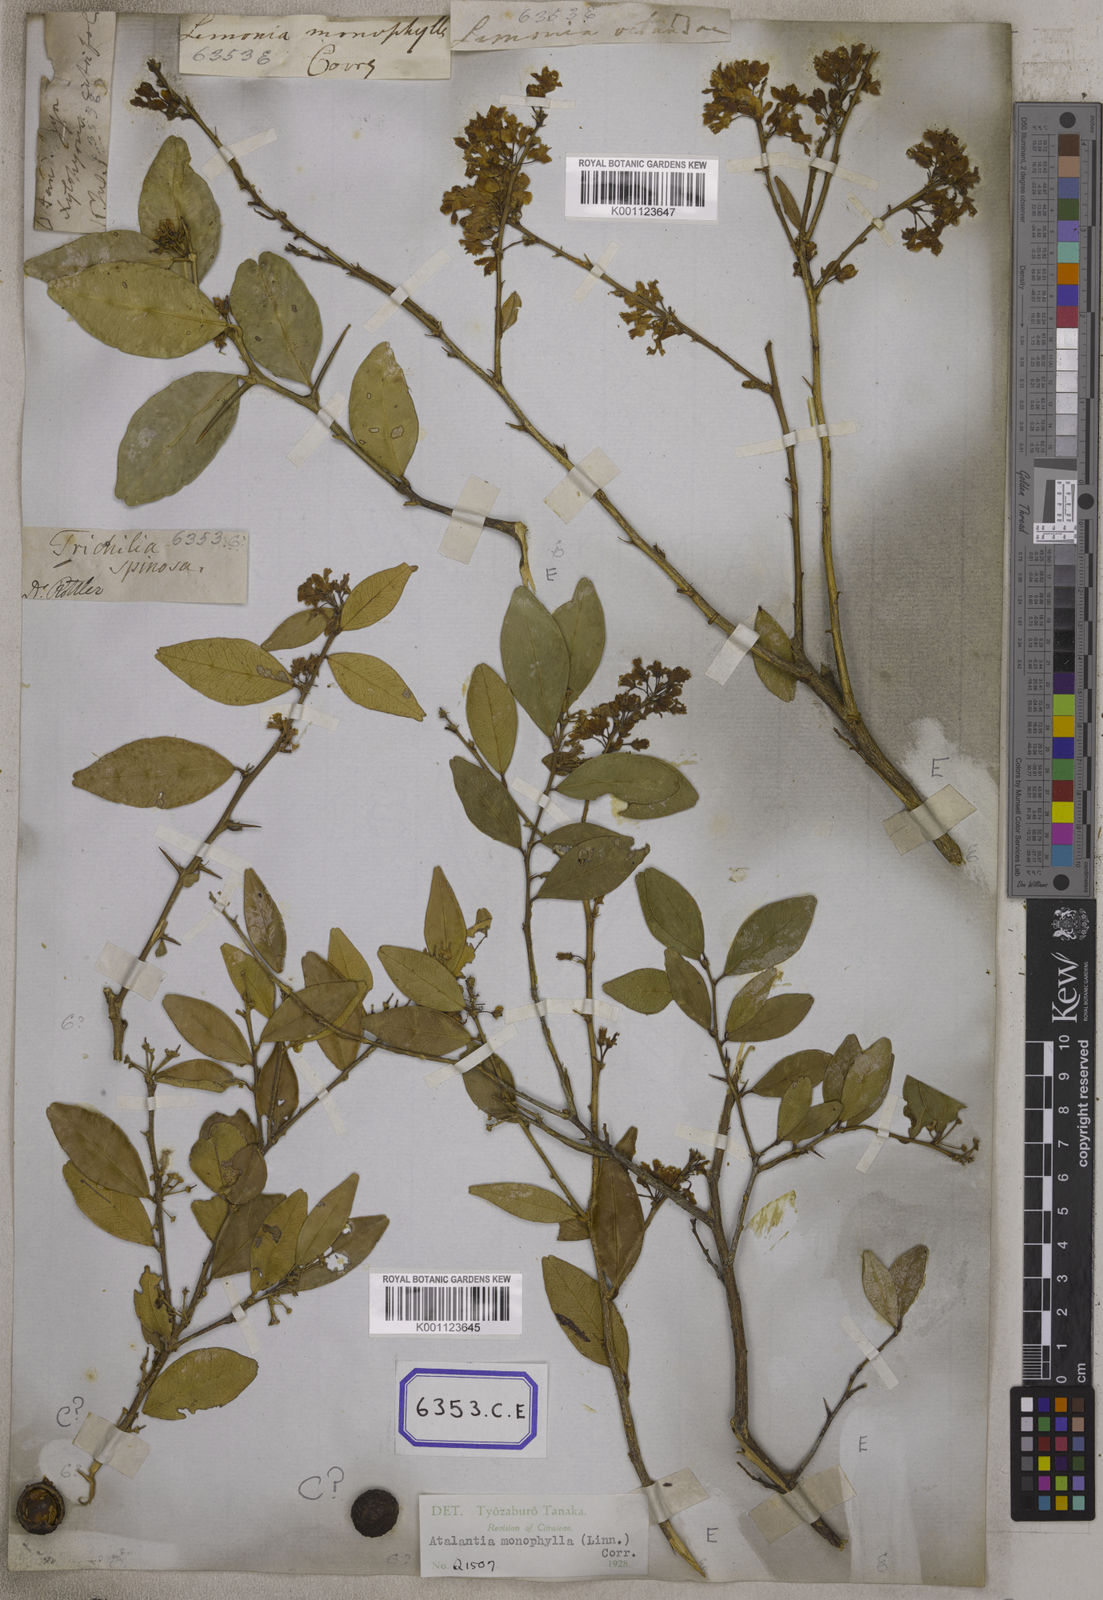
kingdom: Plantae
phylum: Tracheophyta
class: Magnoliopsida
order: Sapindales
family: Rutaceae
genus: Atalantia
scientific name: Atalantia monophylla
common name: Indian-atalantia
